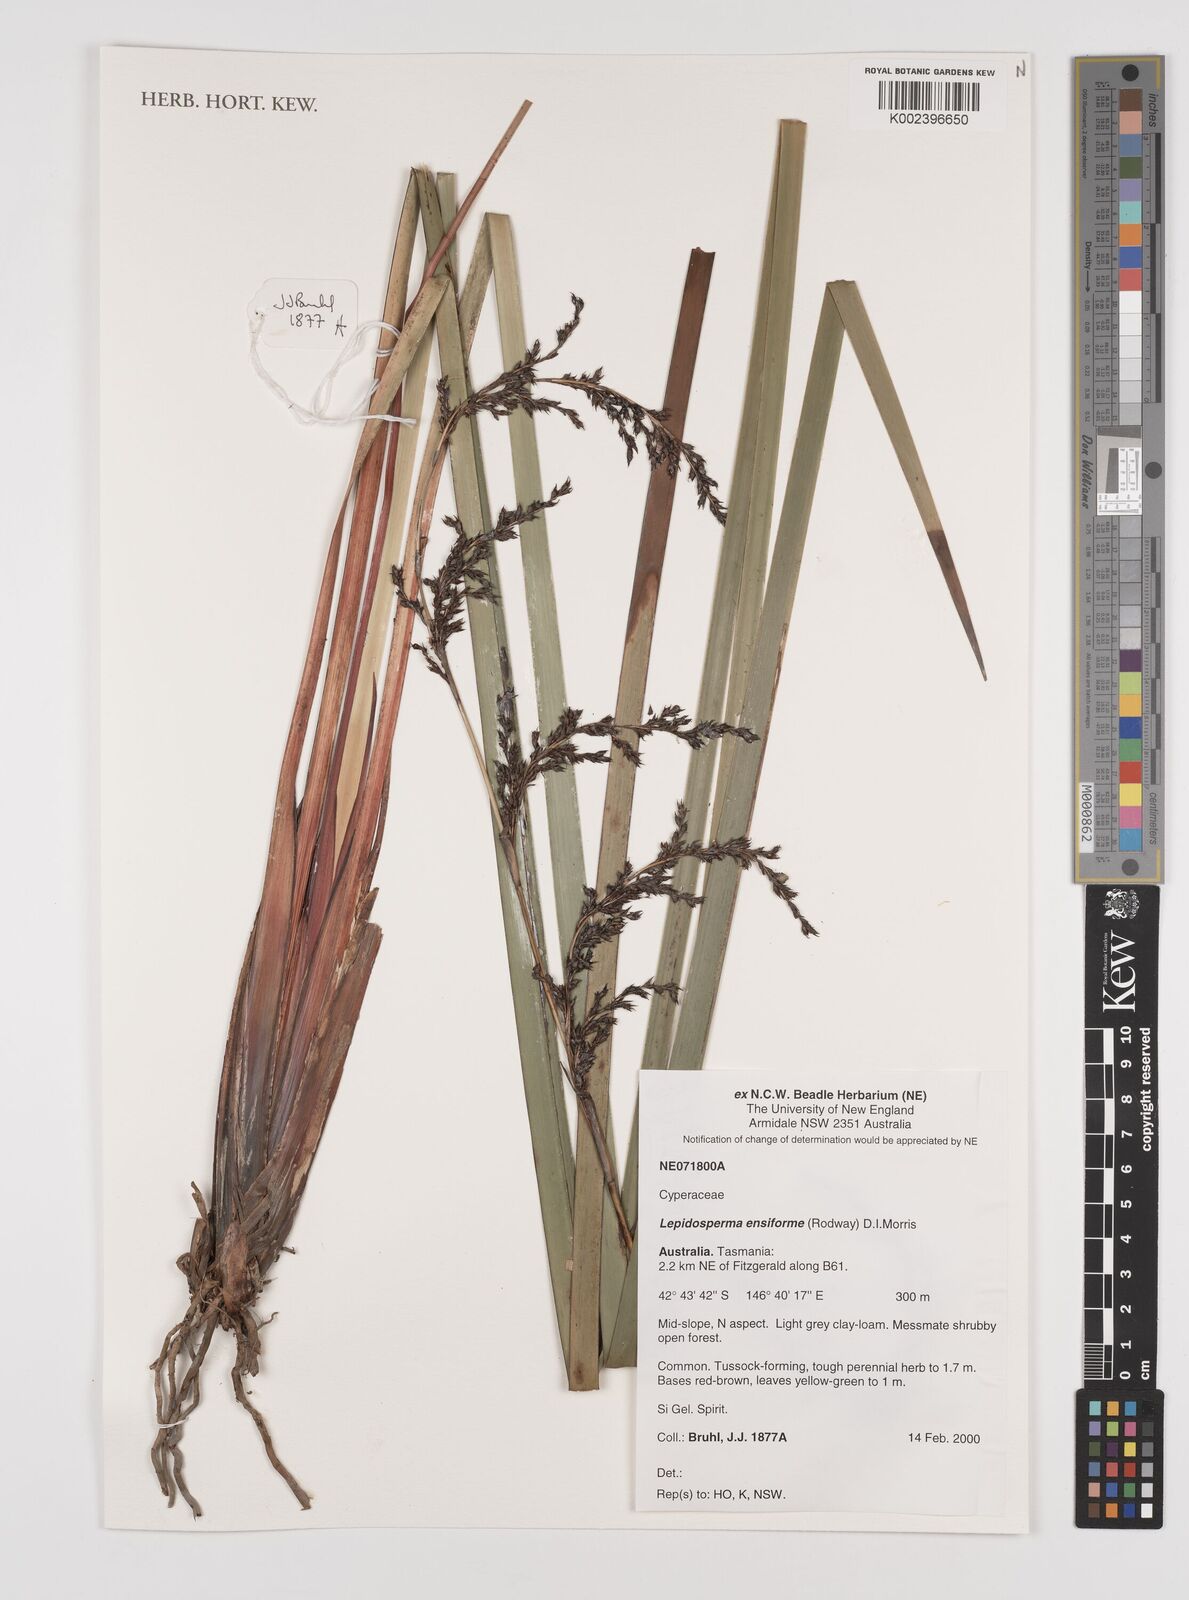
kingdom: Plantae
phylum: Tracheophyta
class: Liliopsida
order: Poales
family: Cyperaceae
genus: Lepidosperma
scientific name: Lepidosperma ensiforme
